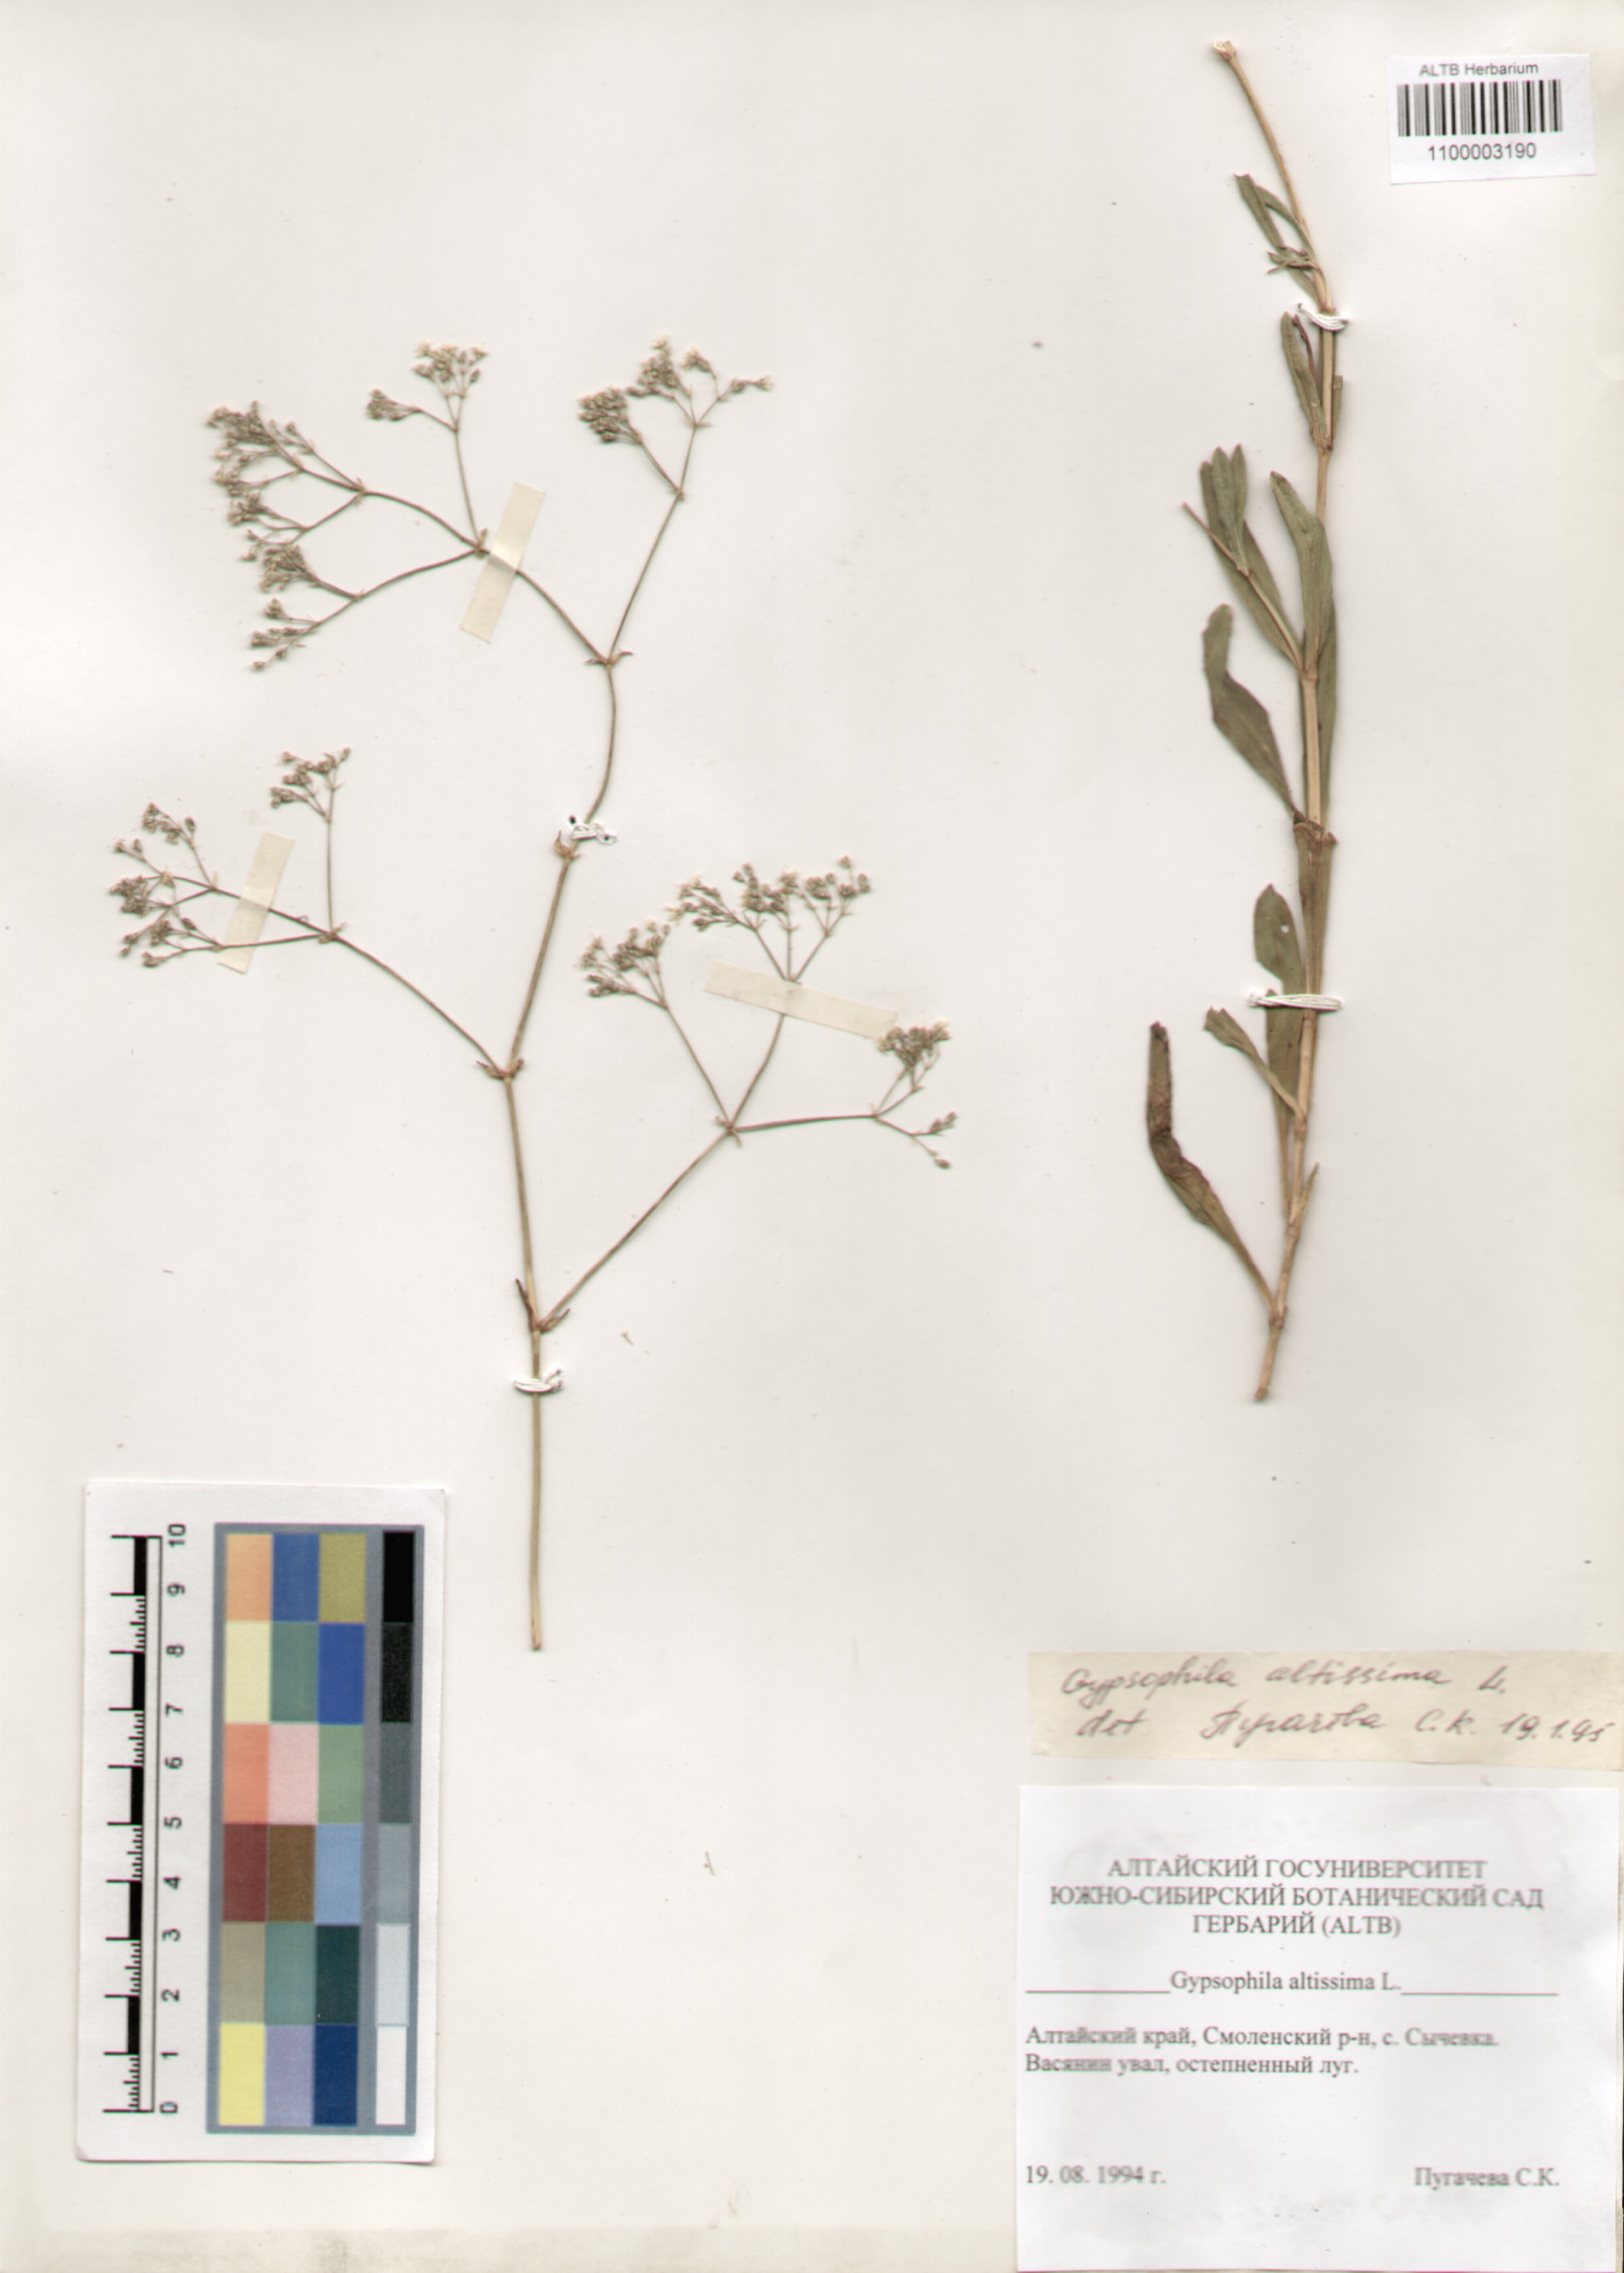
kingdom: Plantae
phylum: Tracheophyta
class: Magnoliopsida
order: Caryophyllales
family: Caryophyllaceae
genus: Gypsophila
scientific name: Gypsophila altissima
